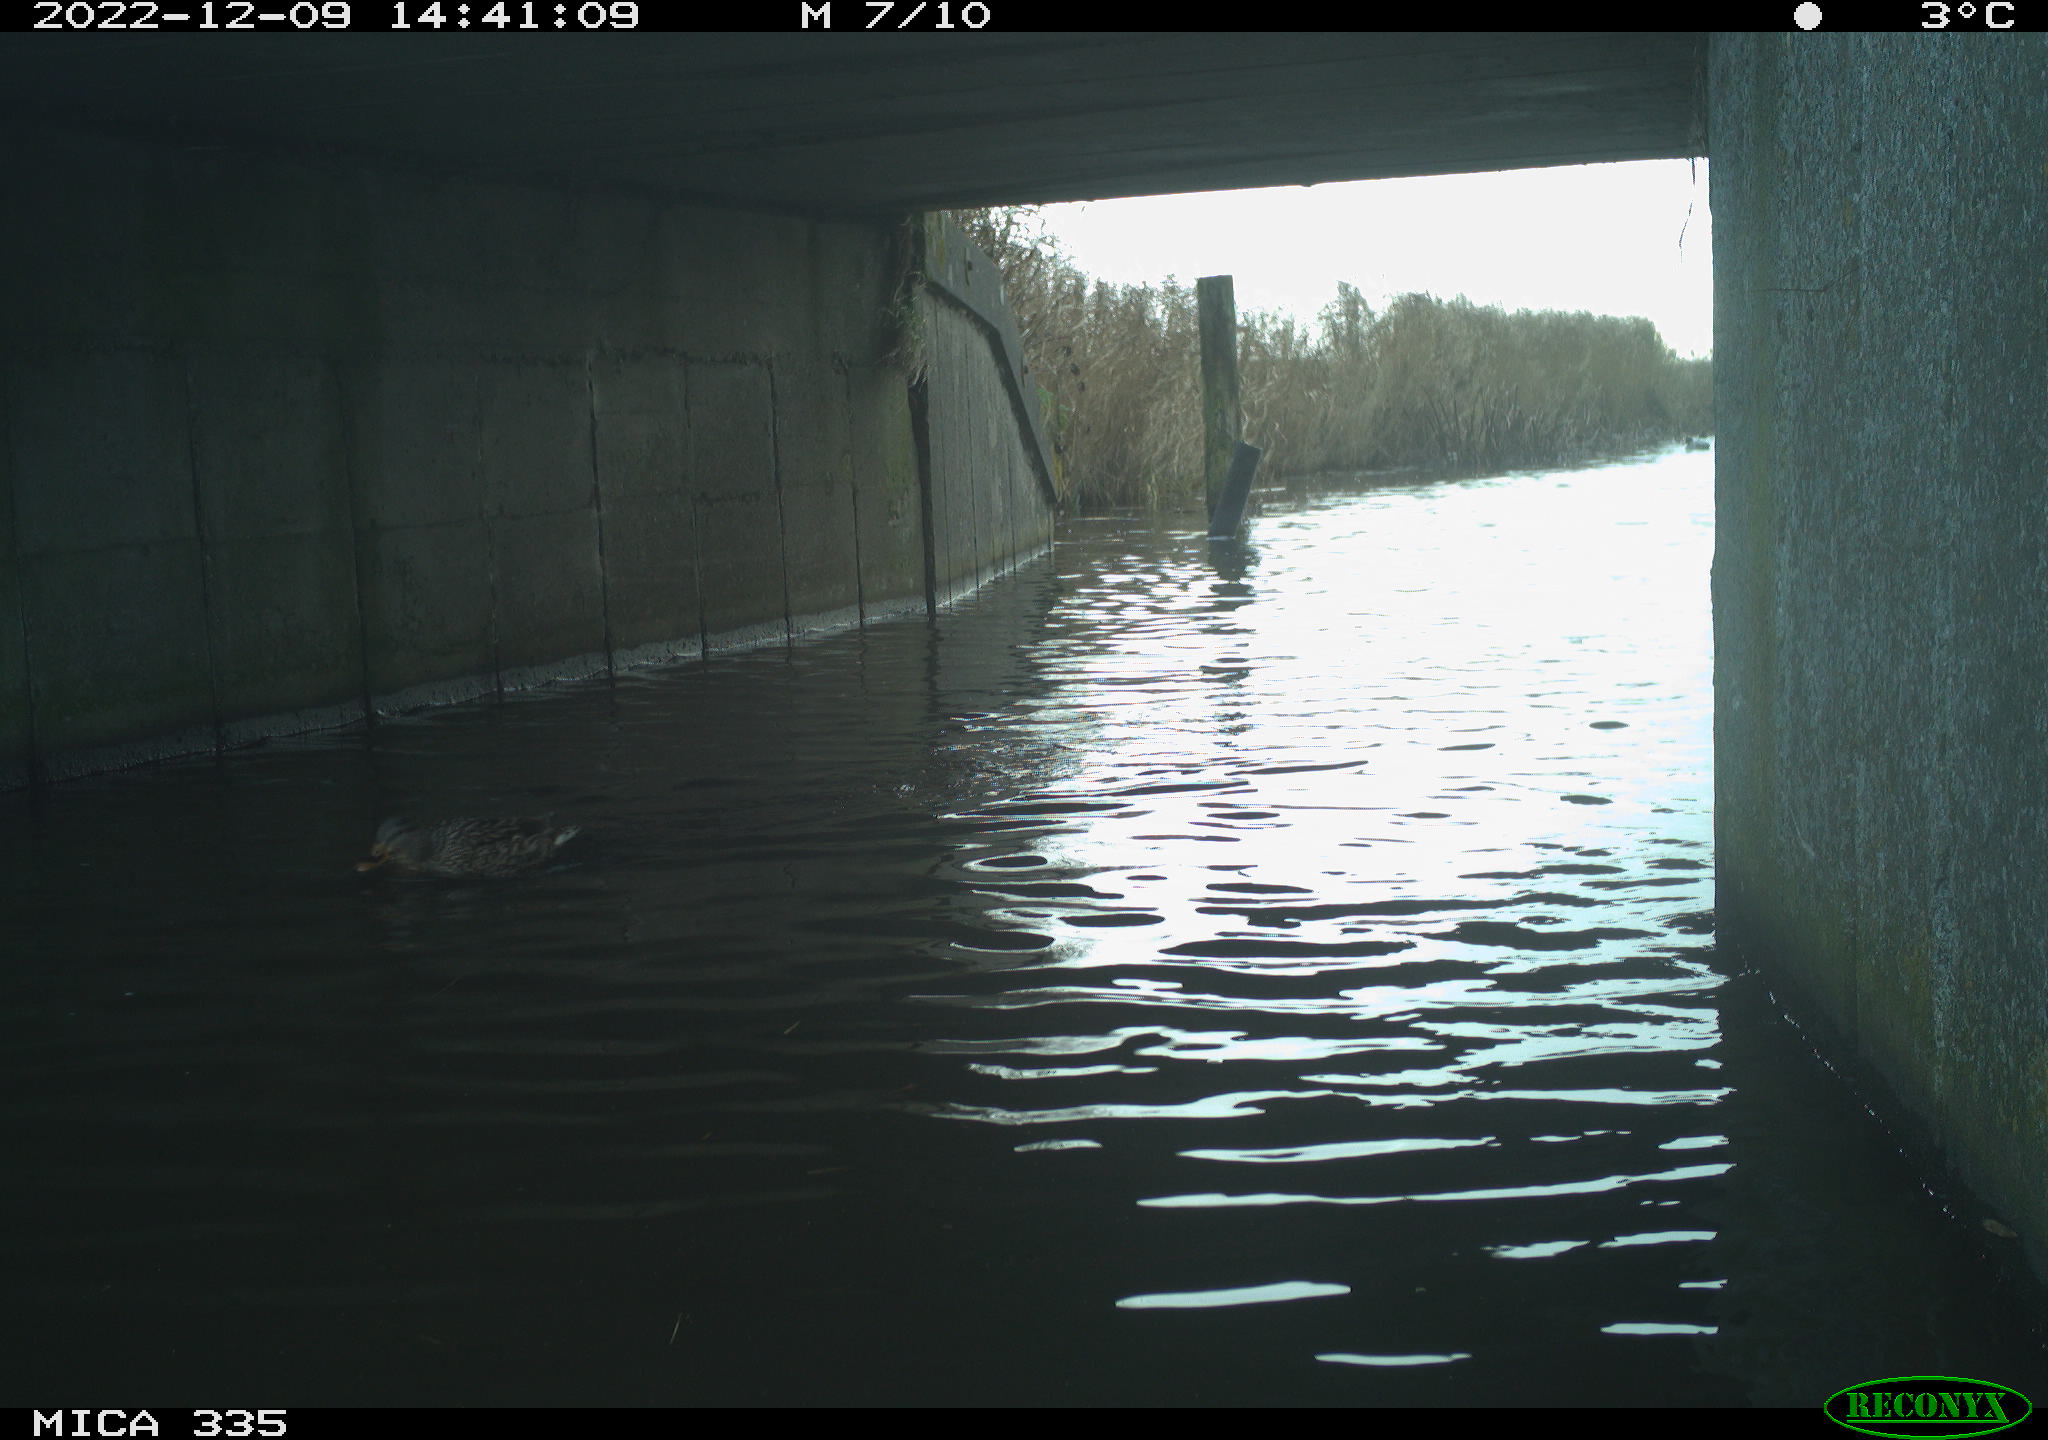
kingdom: Animalia
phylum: Chordata
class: Aves
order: Anseriformes
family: Anatidae
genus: Anas
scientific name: Anas
